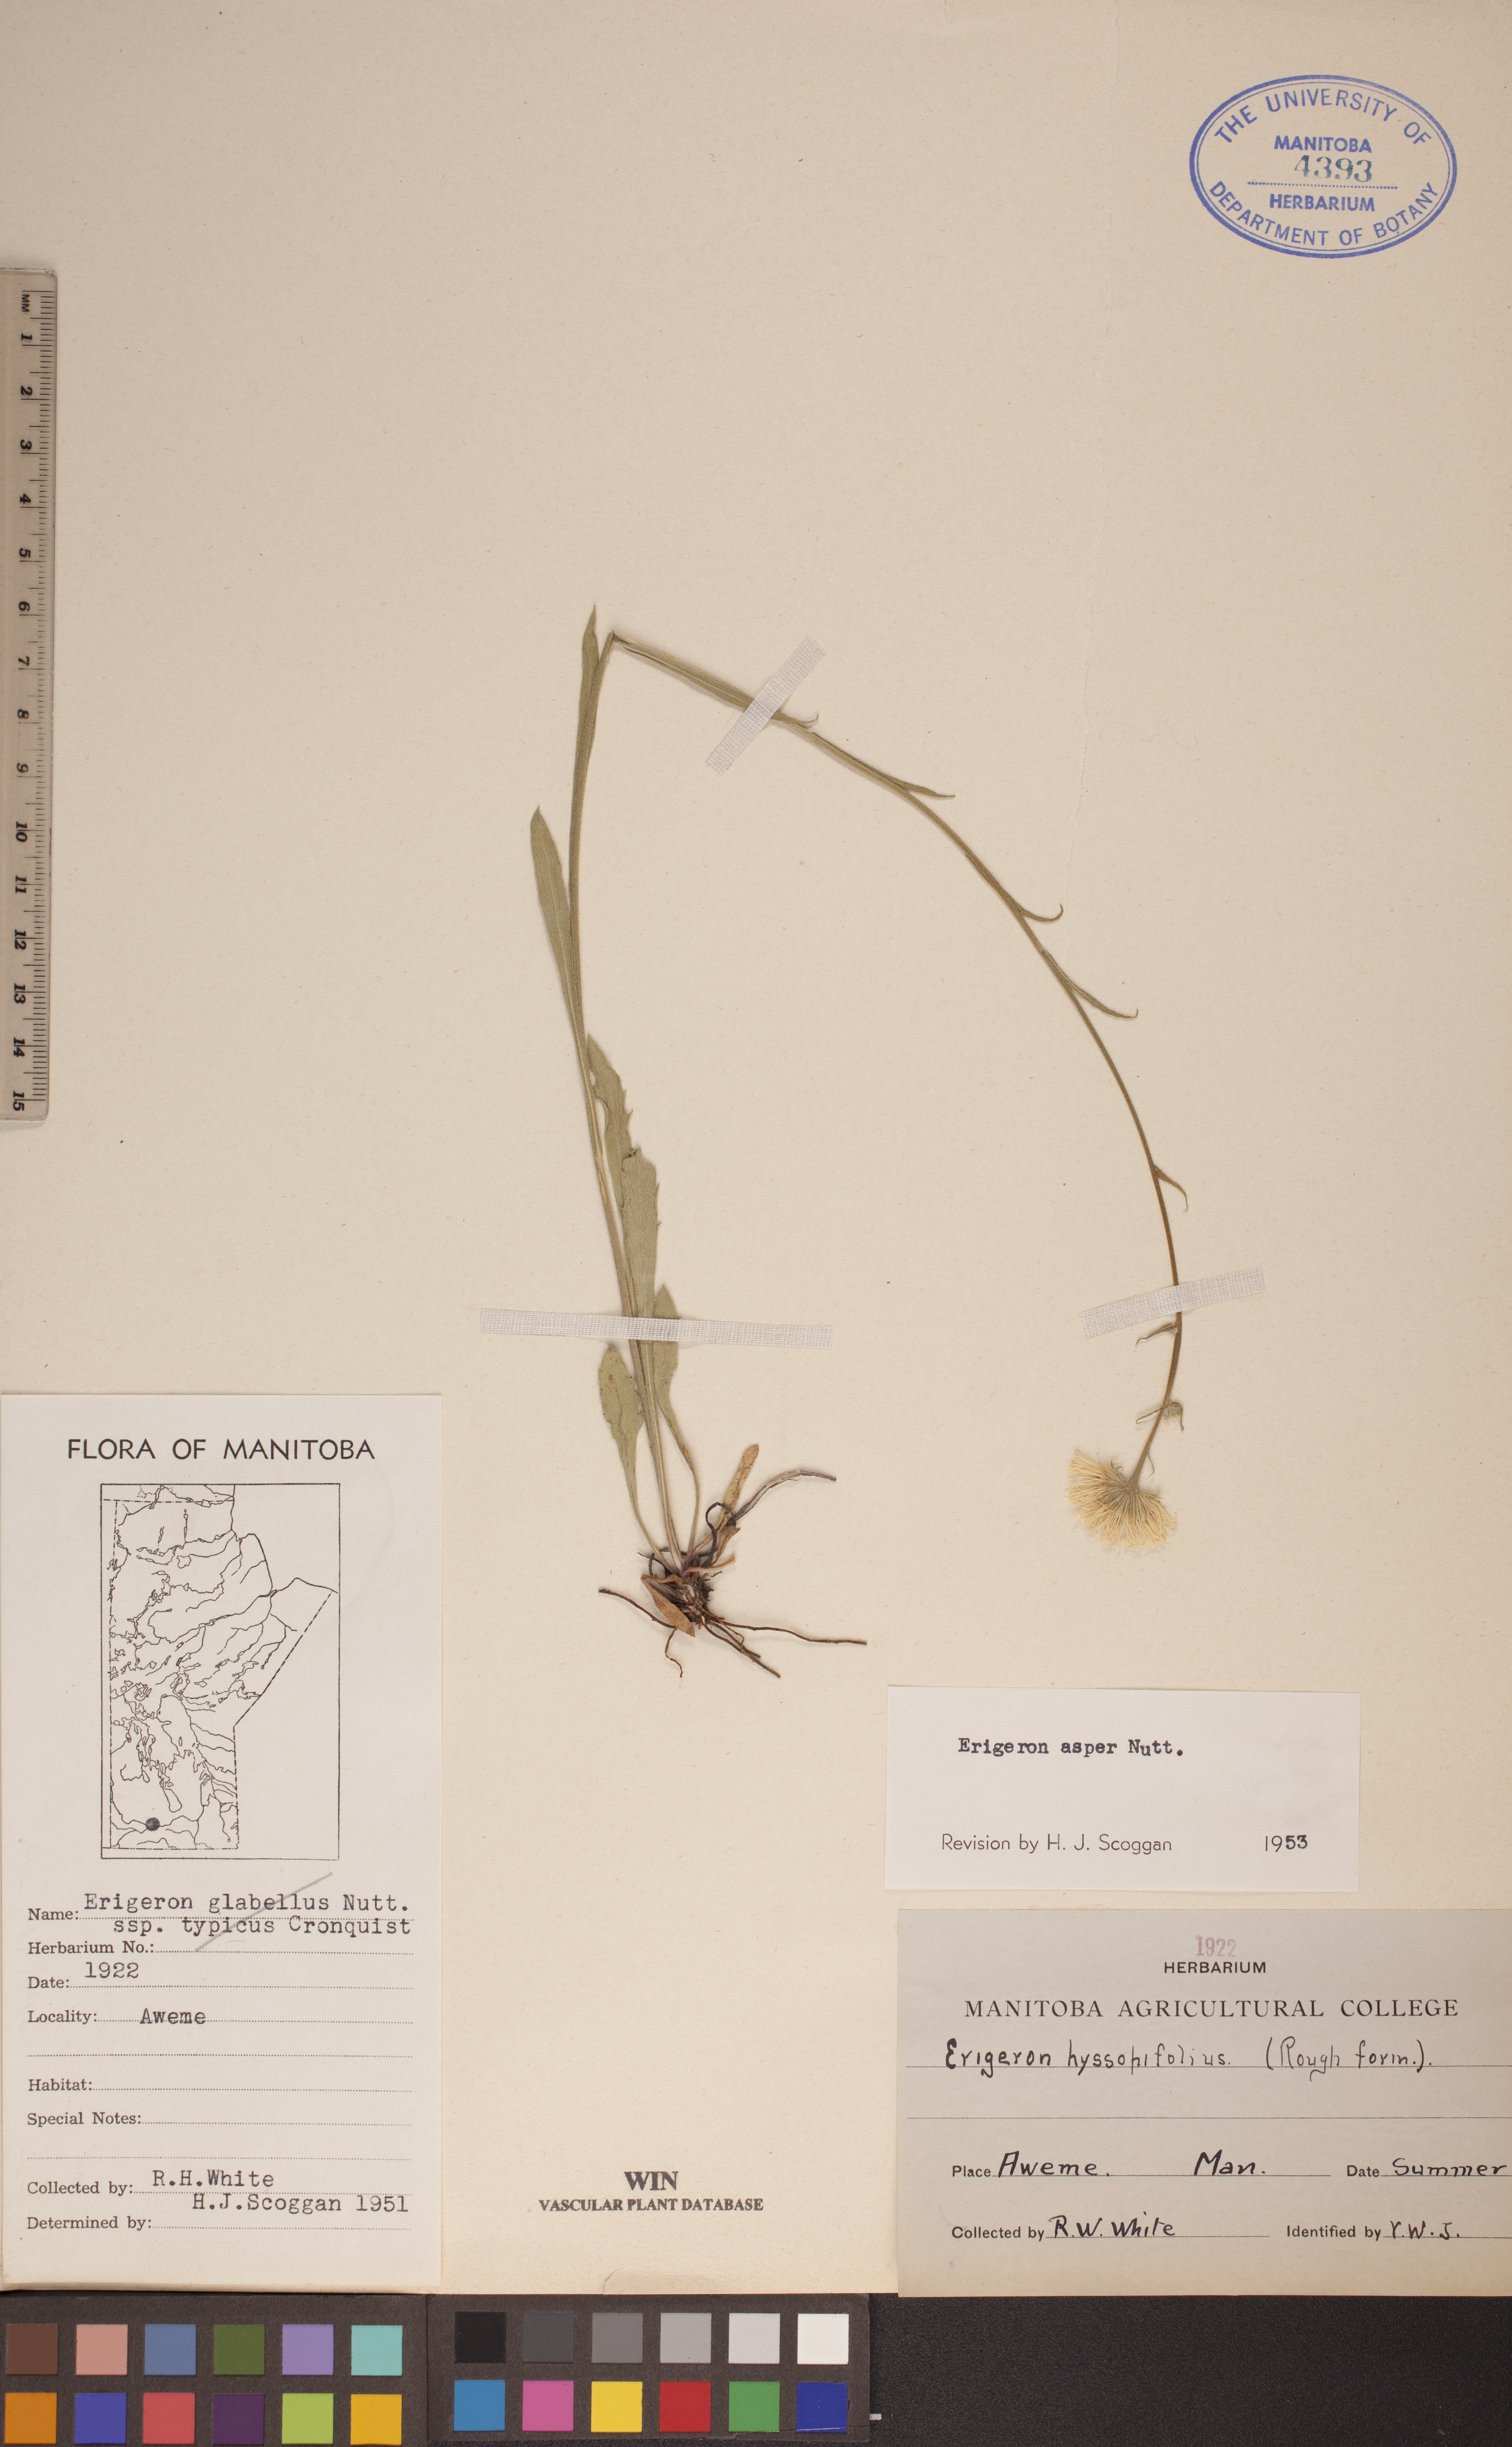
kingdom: Plantae
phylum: Tracheophyta
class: Magnoliopsida
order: Asterales
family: Asteraceae
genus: Erigeron
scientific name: Erigeron glabellus
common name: Smooth fleabane
